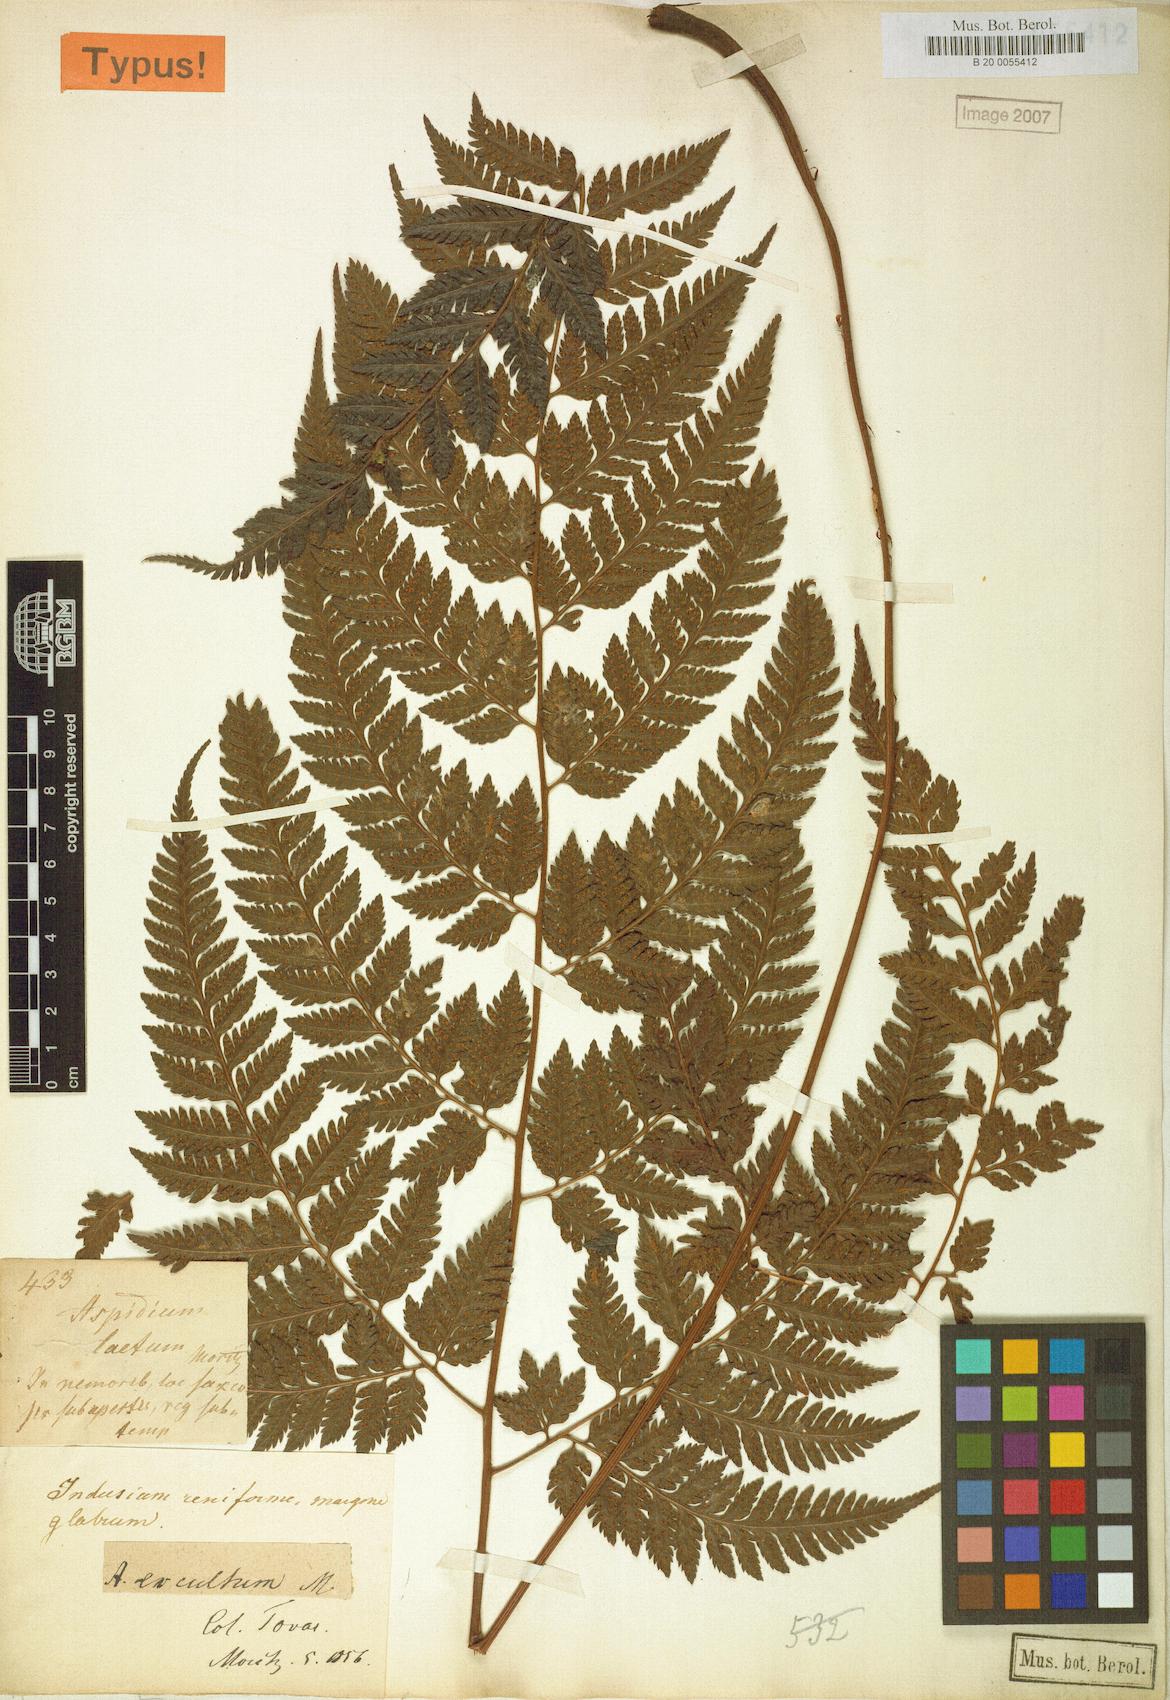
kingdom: Plantae
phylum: Tracheophyta
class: Polypodiopsida
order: Polypodiales
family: Dryopteridaceae
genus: Parapolystichum
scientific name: Parapolystichum excultum
